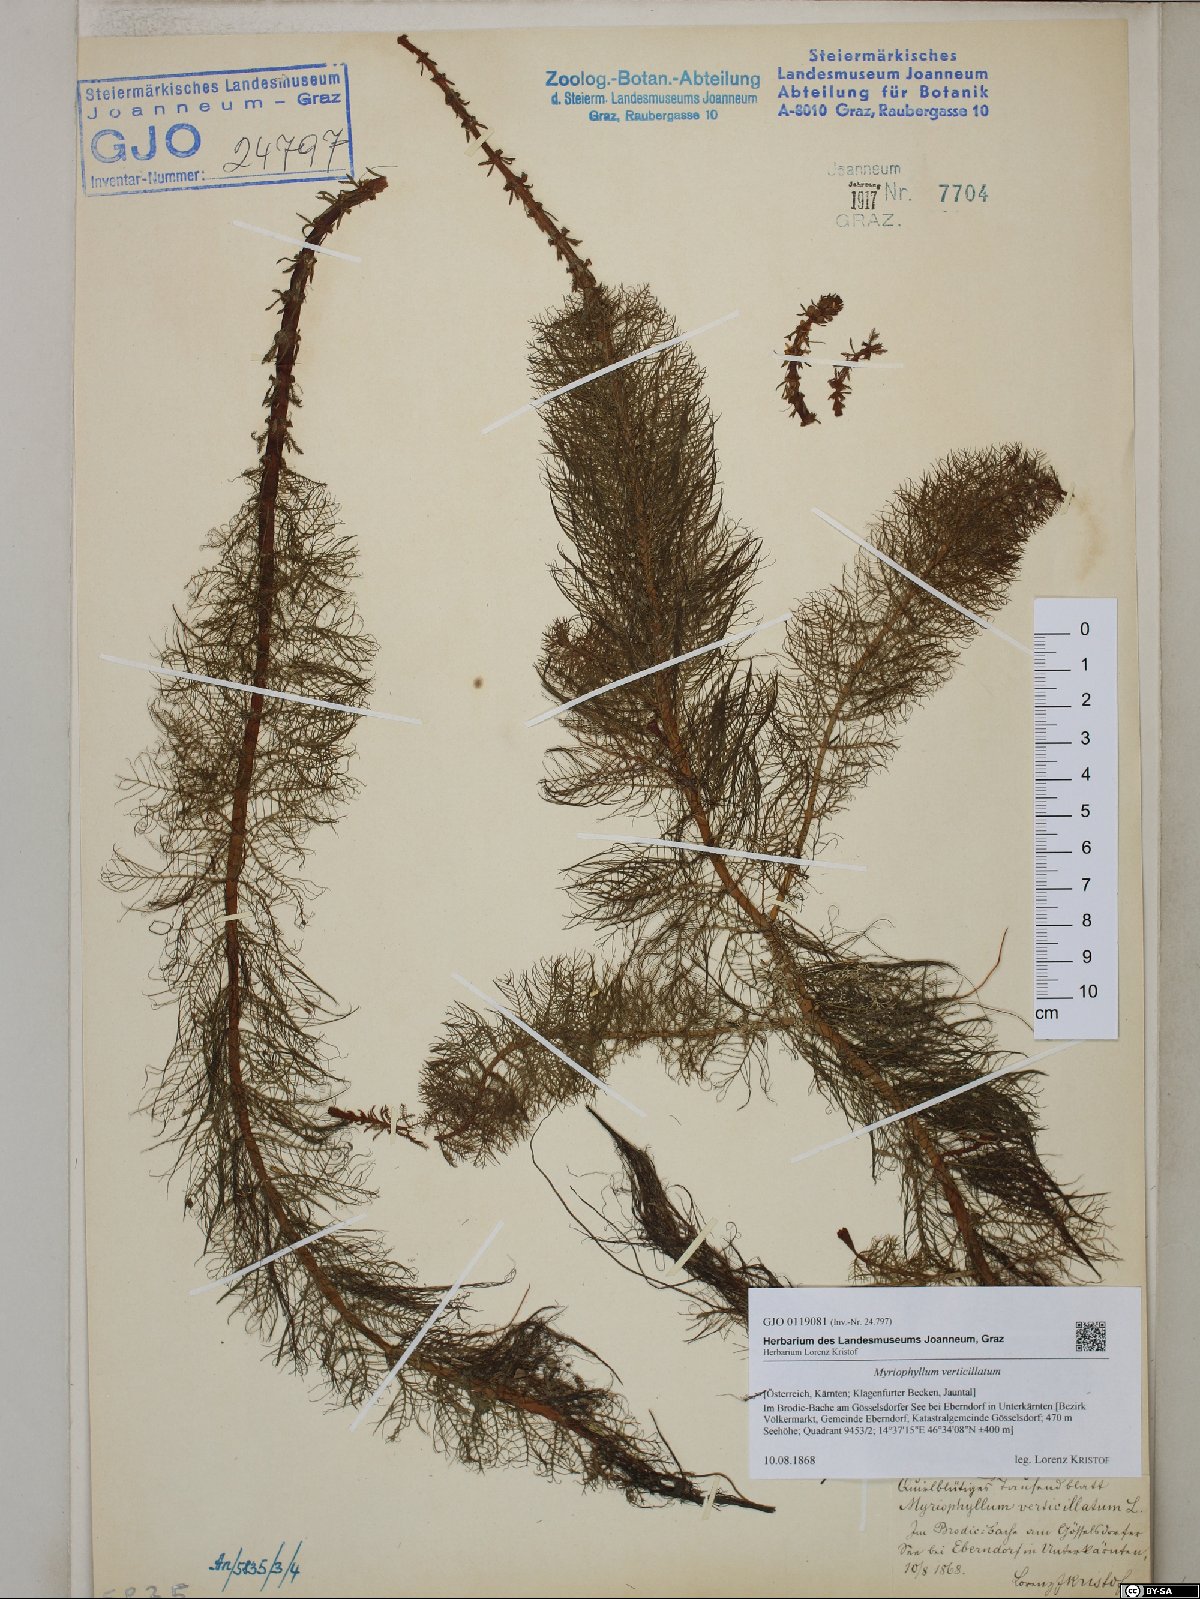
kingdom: Plantae
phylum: Tracheophyta
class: Magnoliopsida
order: Saxifragales
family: Haloragaceae
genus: Myriophyllum
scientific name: Myriophyllum verticillatum
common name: Whorled water-milfoil
